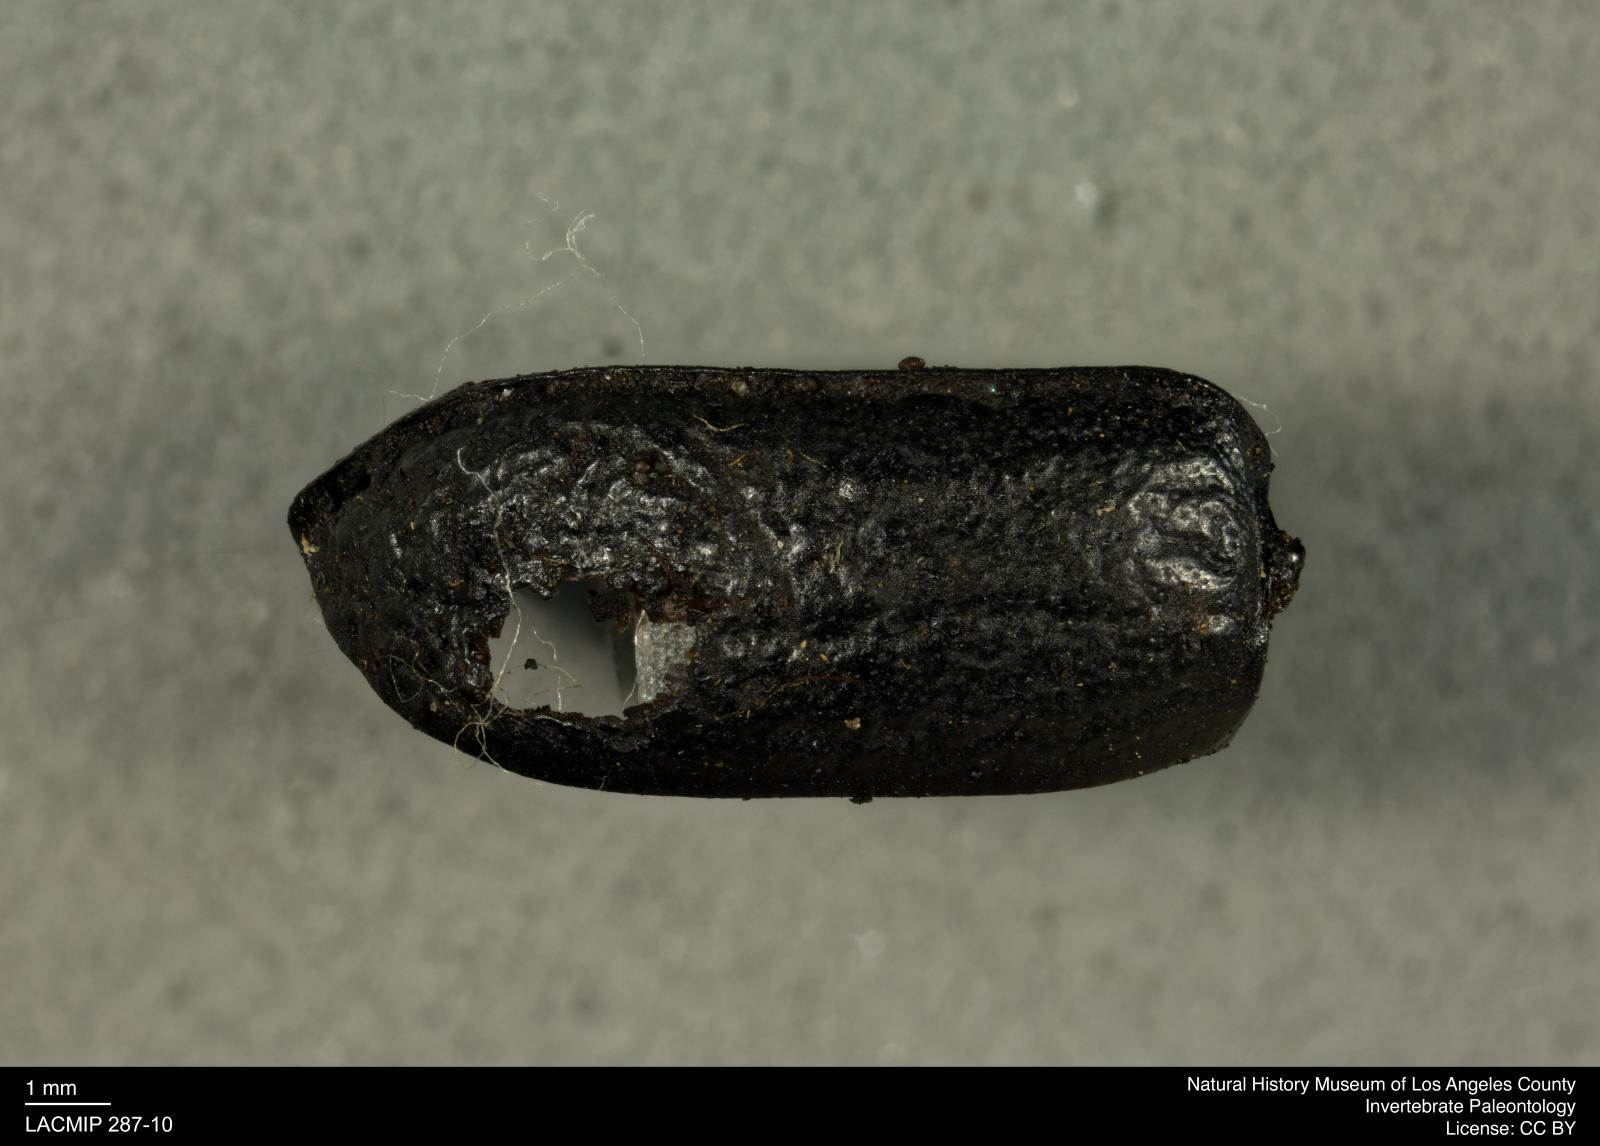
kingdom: Animalia
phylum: Arthropoda
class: Insecta
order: Coleoptera
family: Tenebrionidae
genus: Coniontis
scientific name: Coniontis abdominalis
